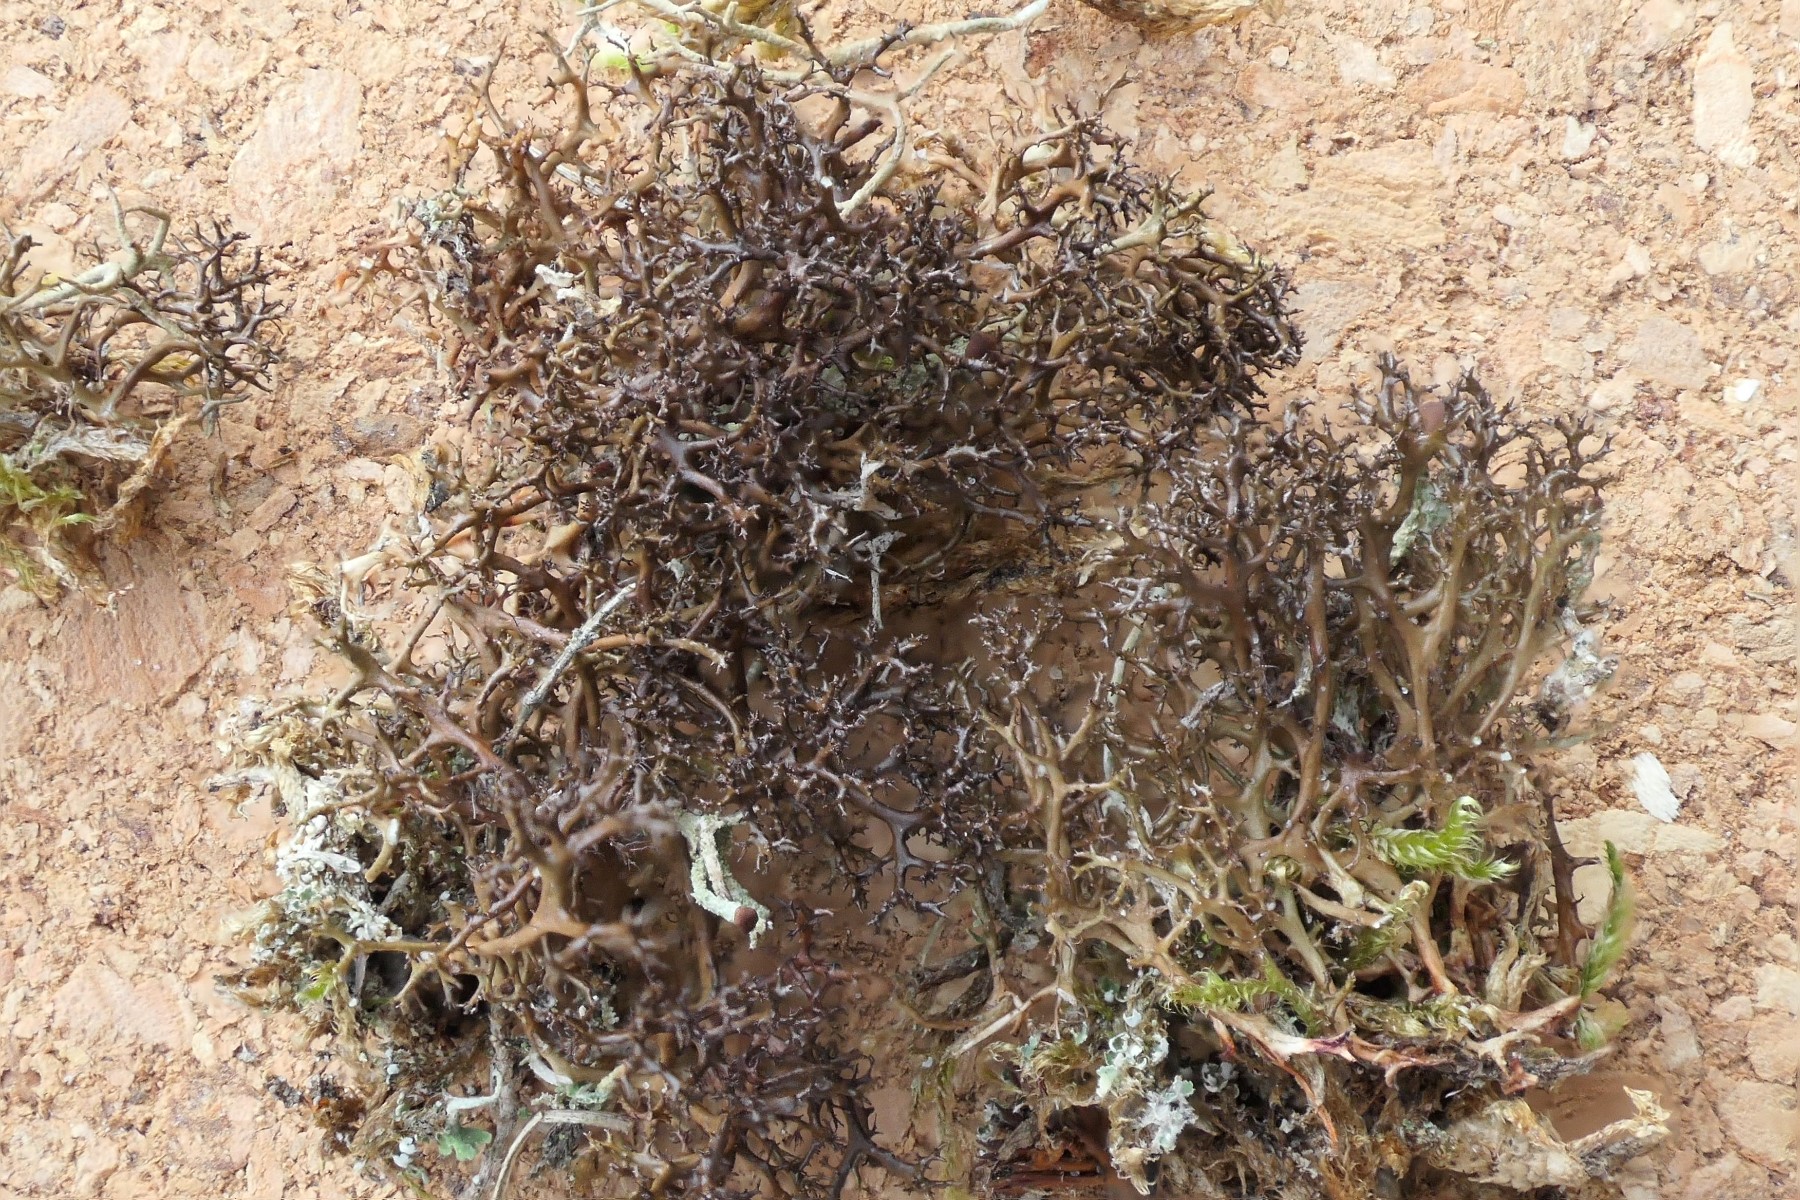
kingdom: Fungi
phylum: Ascomycota
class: Lecanoromycetes
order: Lecanorales
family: Parmeliaceae
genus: Cetraria
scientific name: Cetraria muricata
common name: tue-tjørnelav
